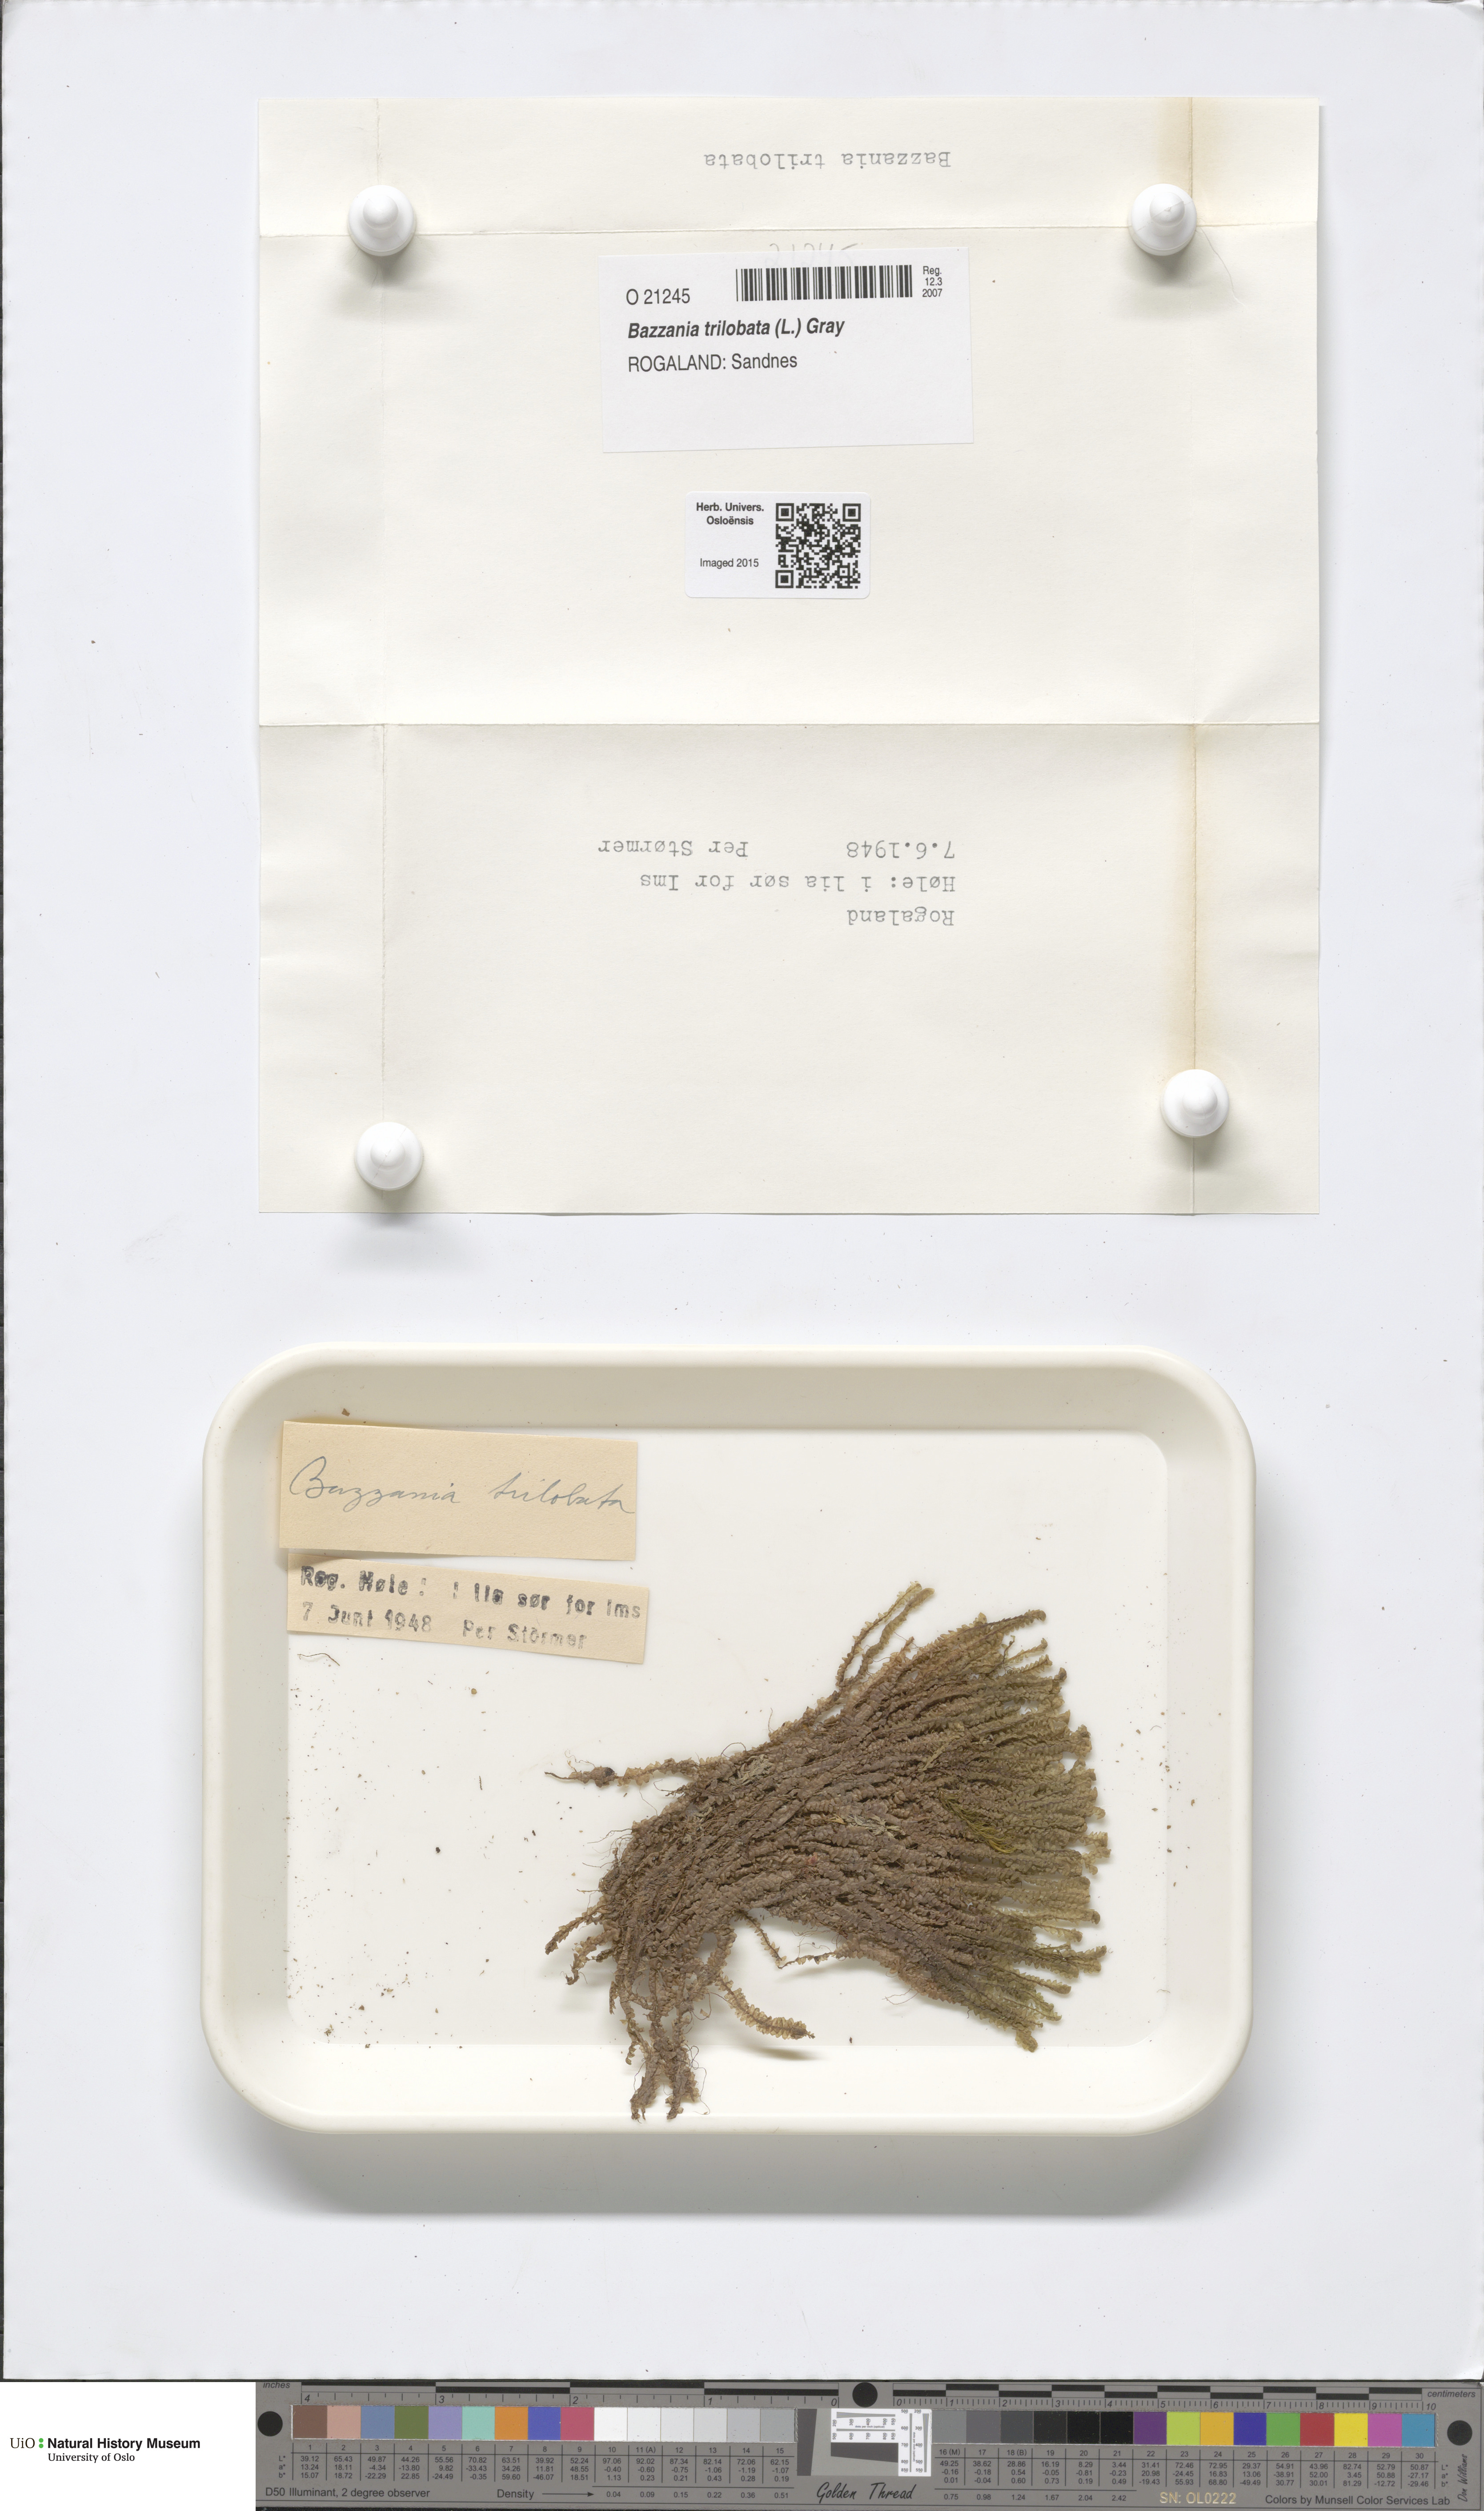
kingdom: Plantae
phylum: Marchantiophyta
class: Jungermanniopsida
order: Jungermanniales
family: Lepidoziaceae
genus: Bazzania
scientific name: Bazzania trilobata
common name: Three-lobed whipwort
